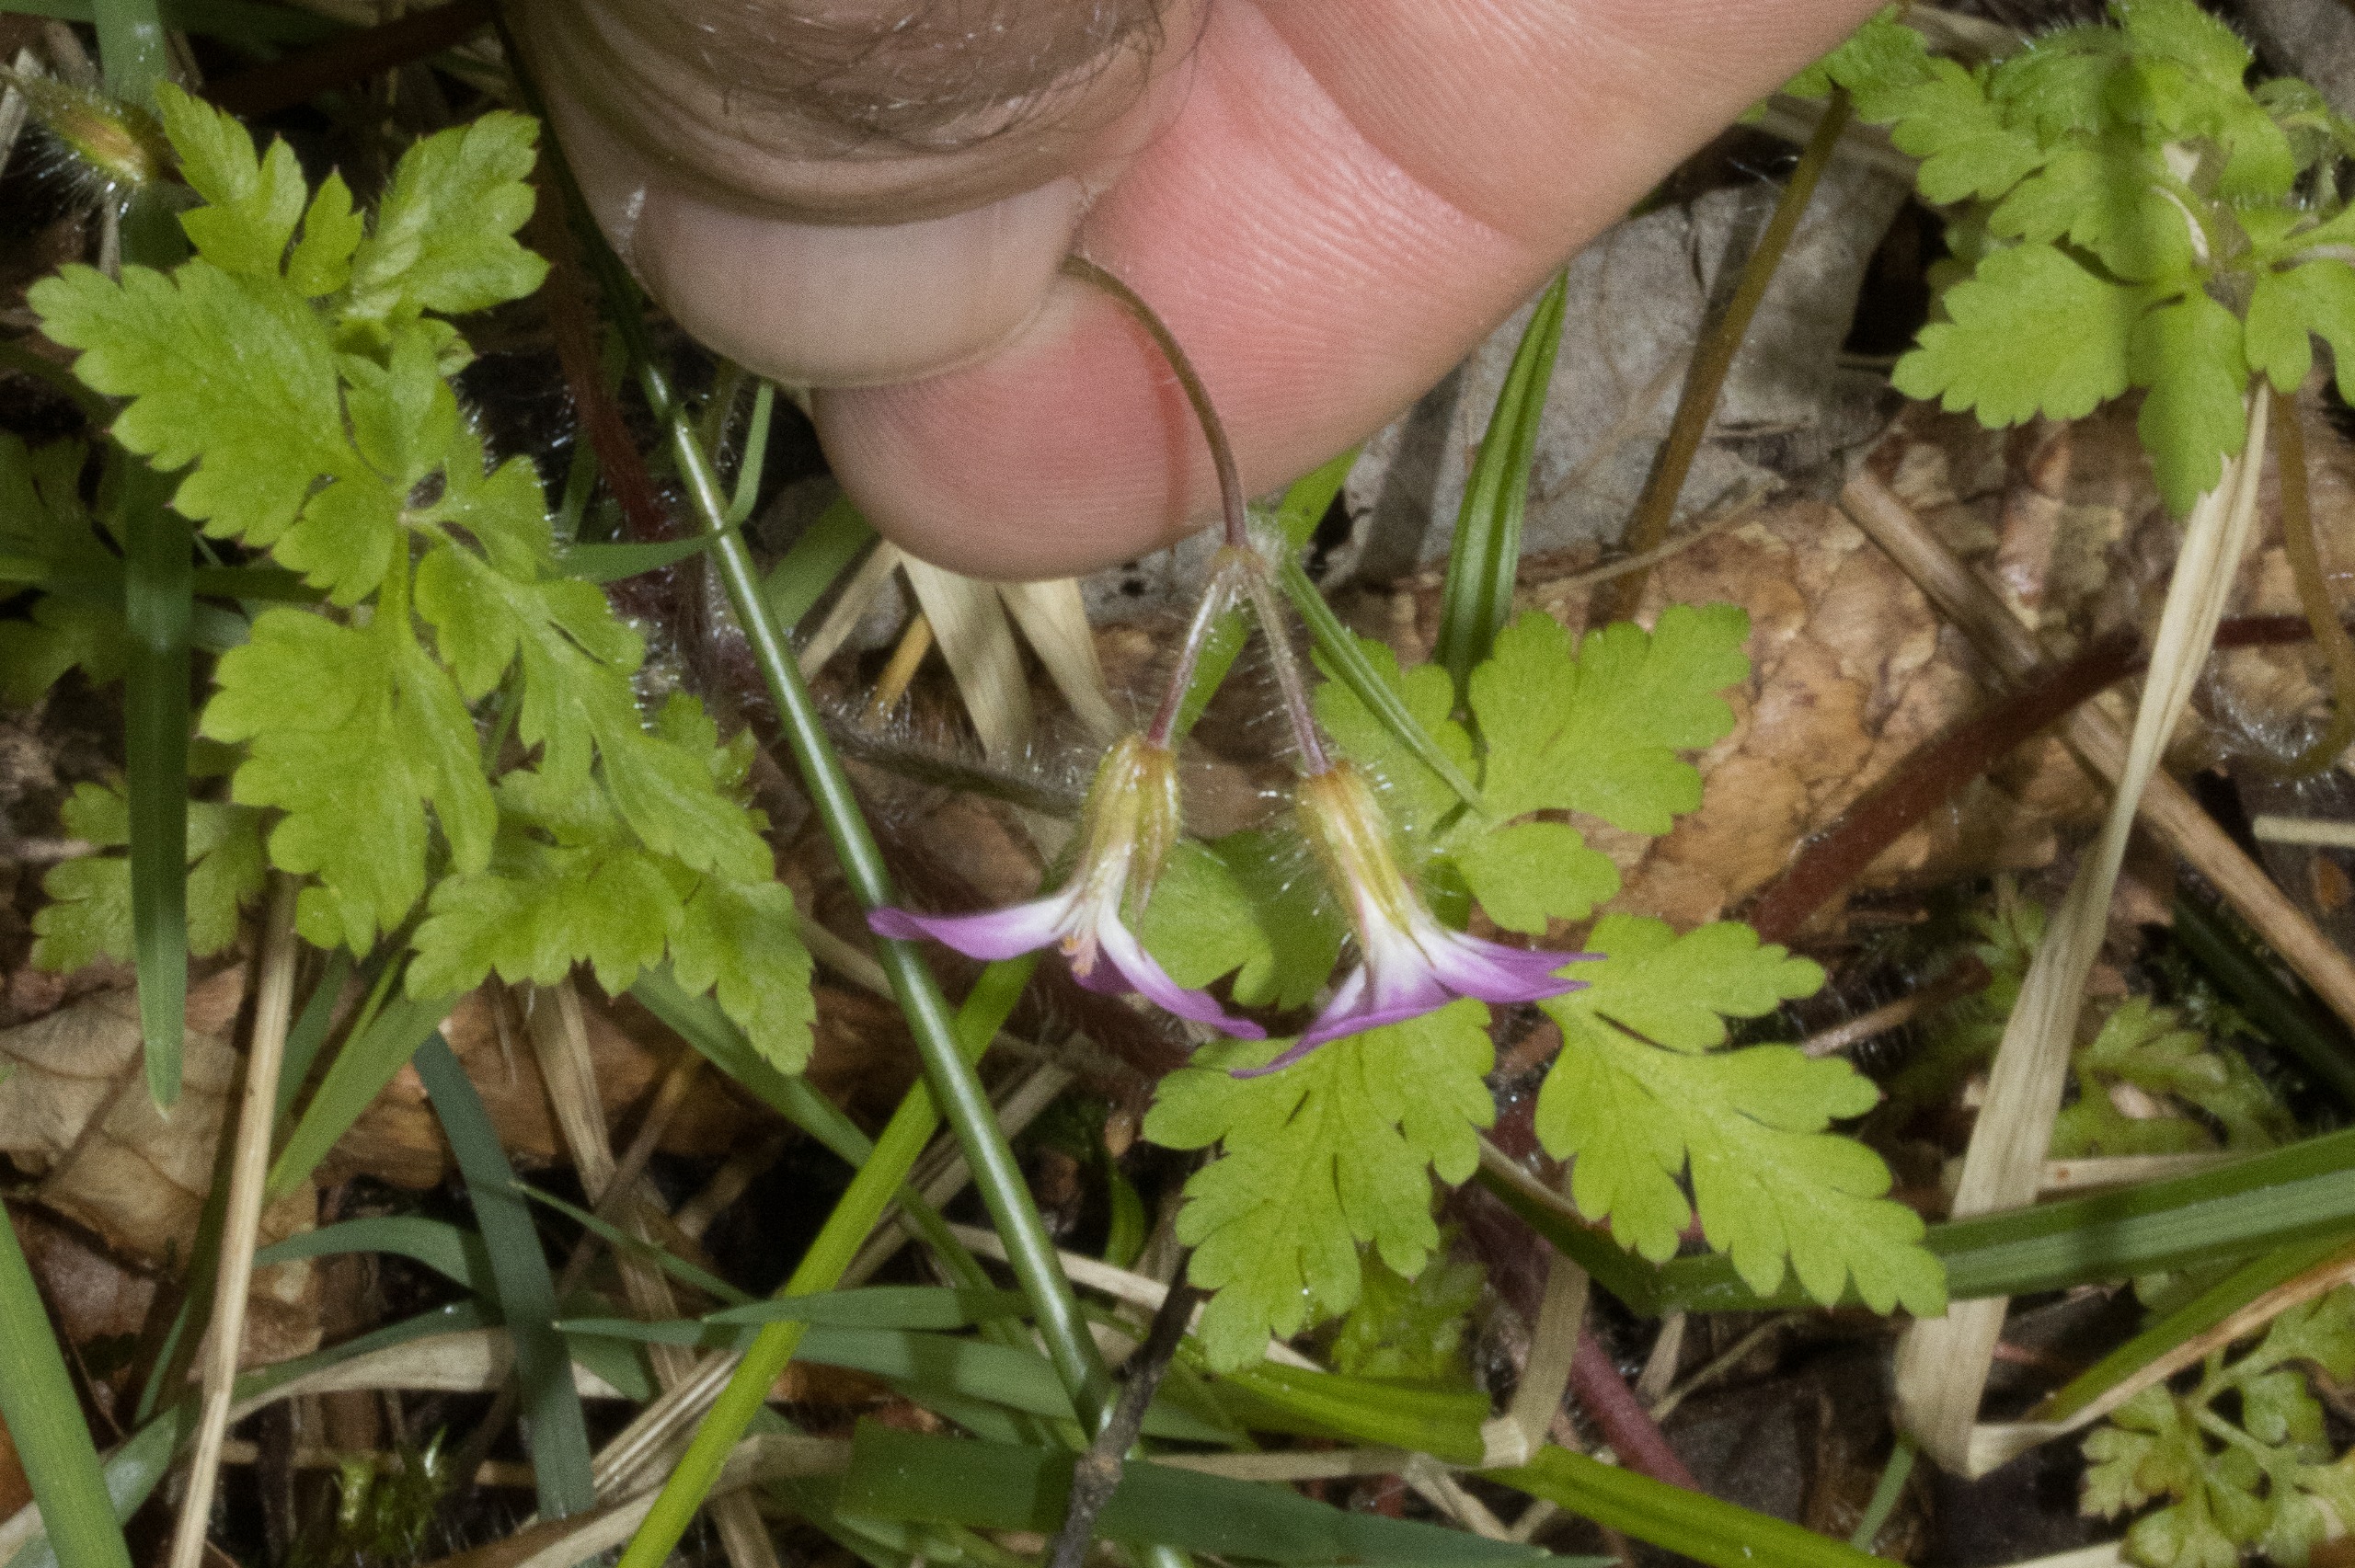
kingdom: Plantae
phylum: Tracheophyta
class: Magnoliopsida
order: Geraniales
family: Geraniaceae
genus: Geranium
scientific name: Geranium robertianum
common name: Stinkende storkenæb
